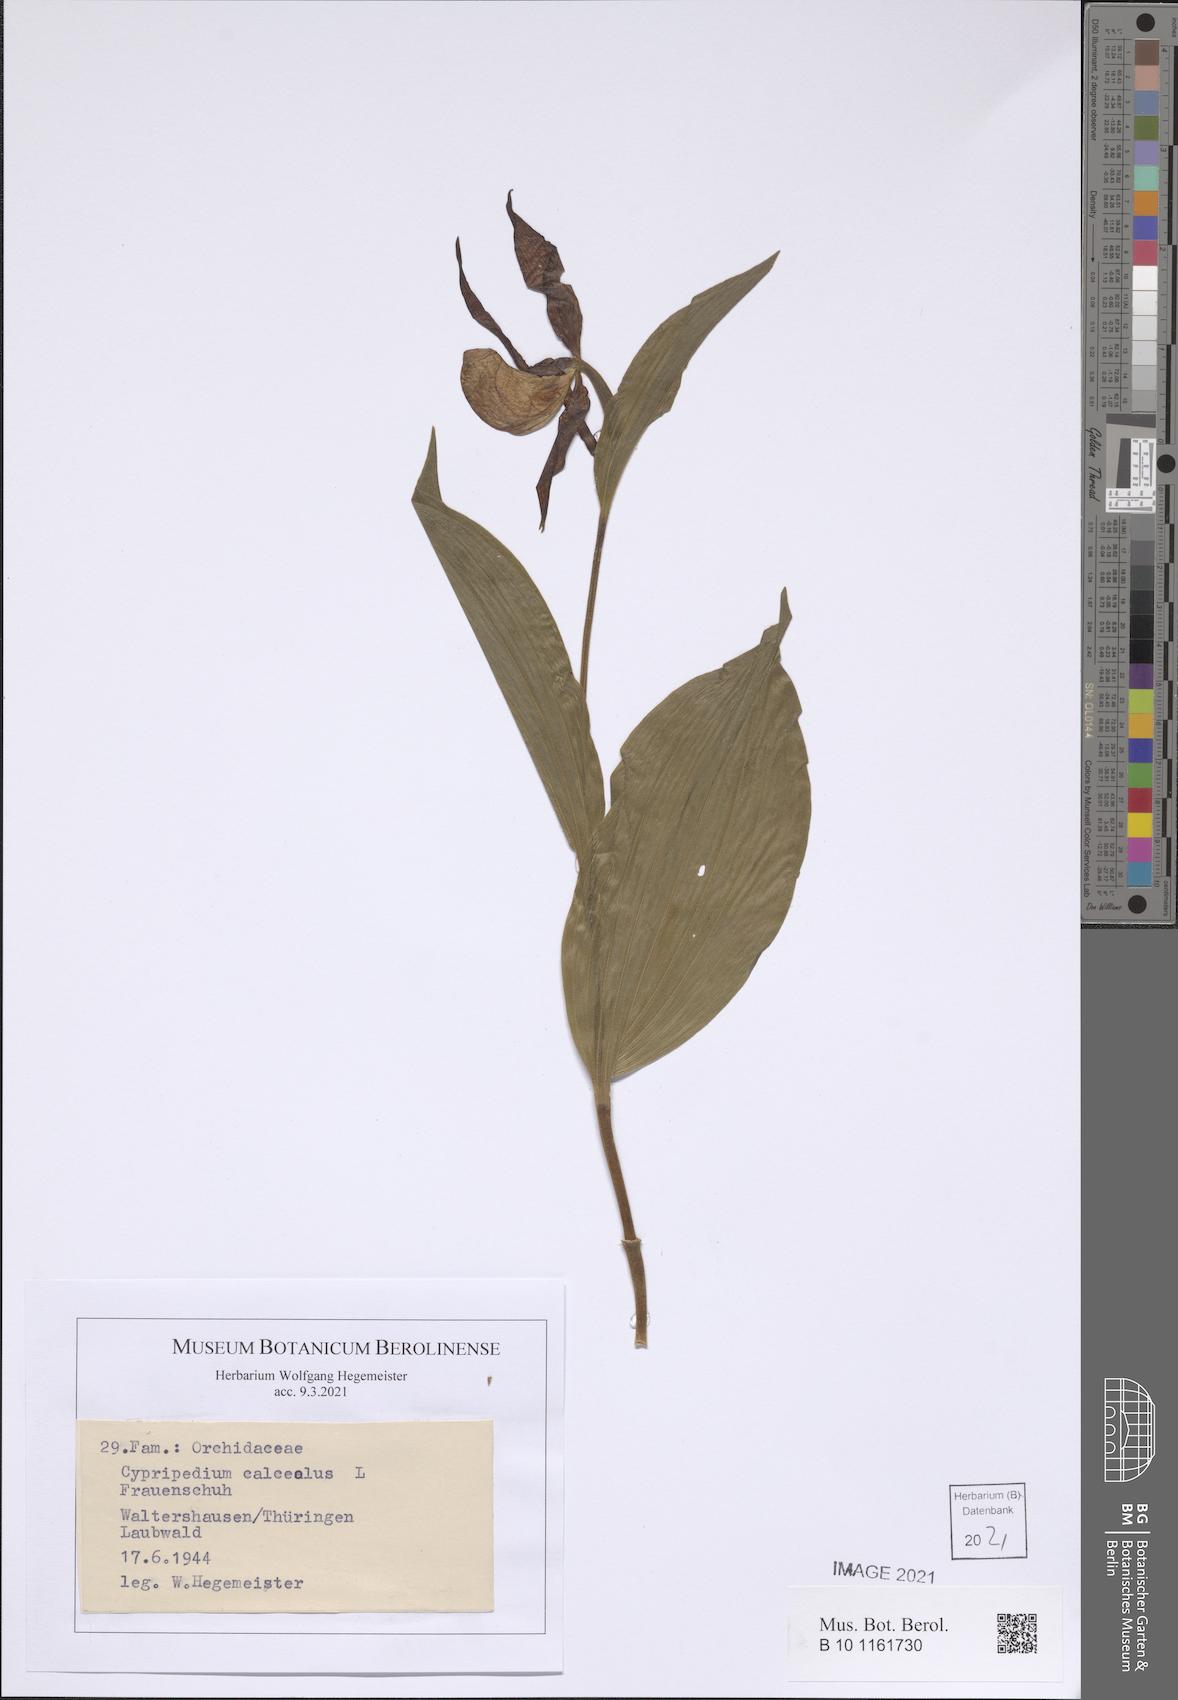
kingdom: Plantae
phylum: Tracheophyta
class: Liliopsida
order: Asparagales
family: Orchidaceae
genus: Cypripedium
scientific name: Cypripedium calceolus
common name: Lady's-slipper
